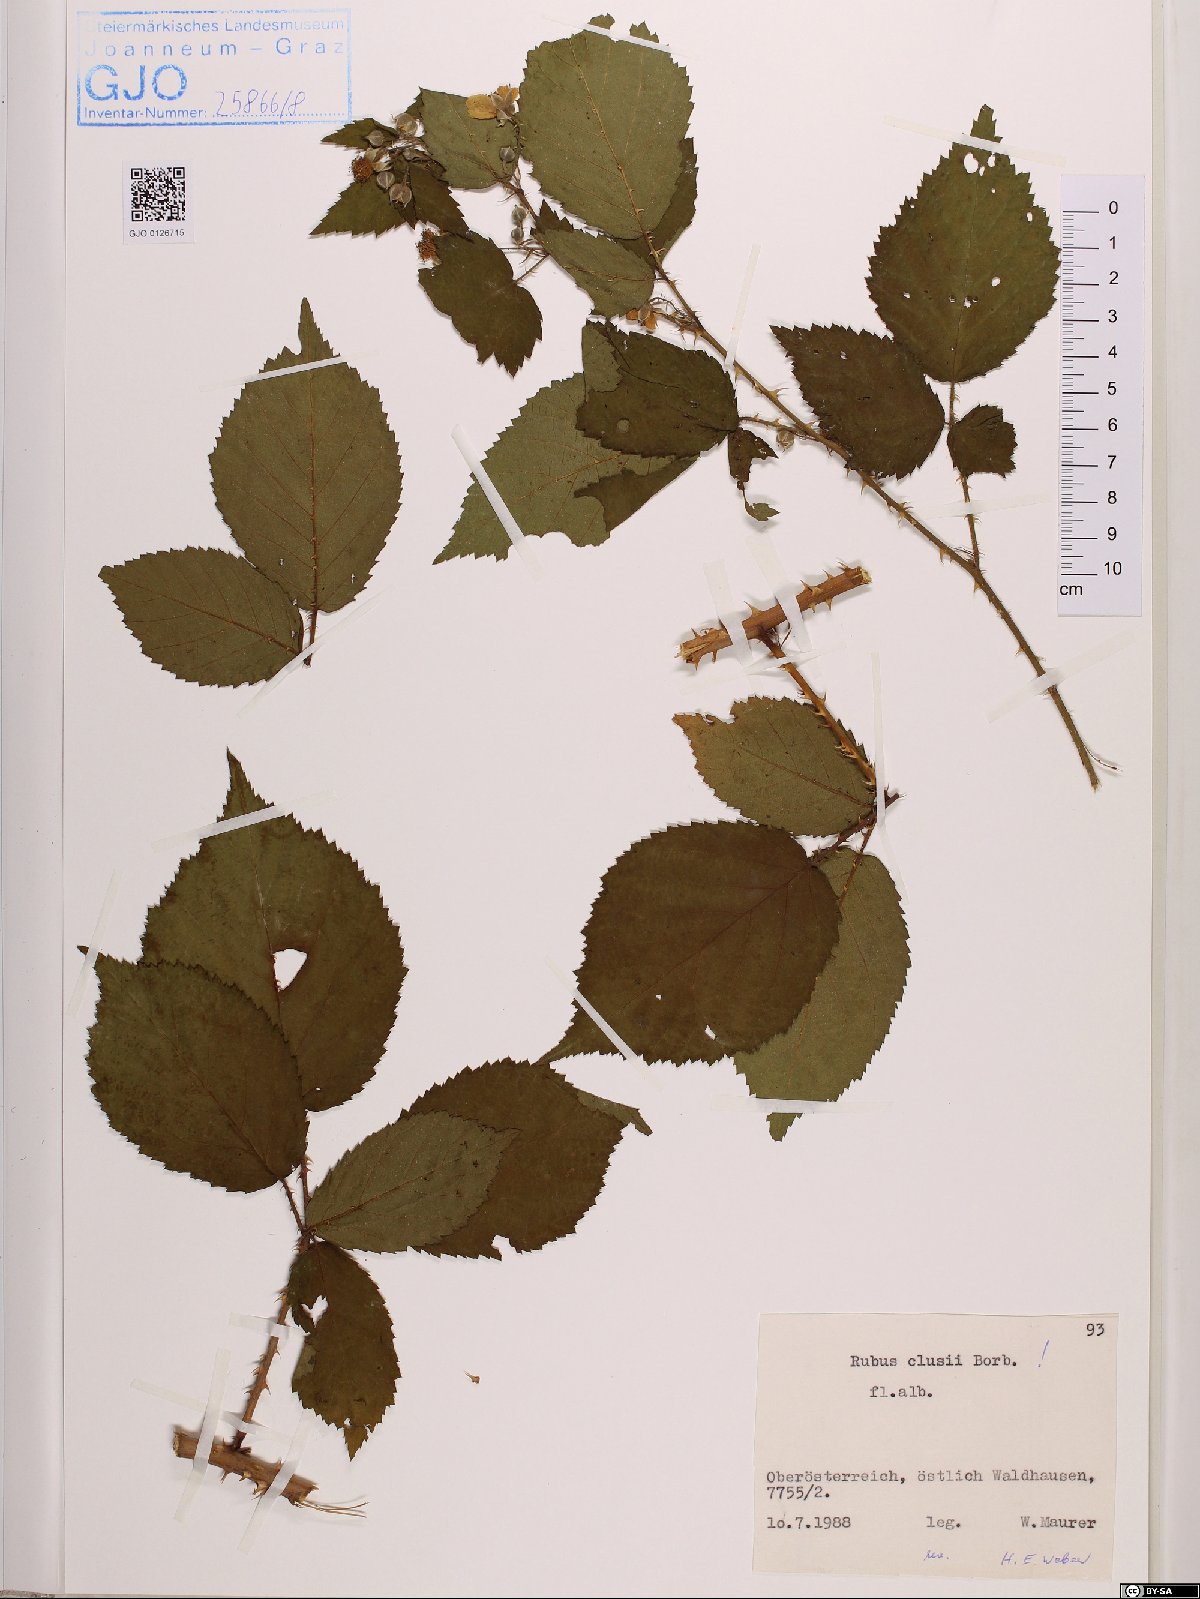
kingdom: Plantae
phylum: Tracheophyta
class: Magnoliopsida
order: Rosales
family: Rosaceae
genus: Rubus
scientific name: Rubus clusii
